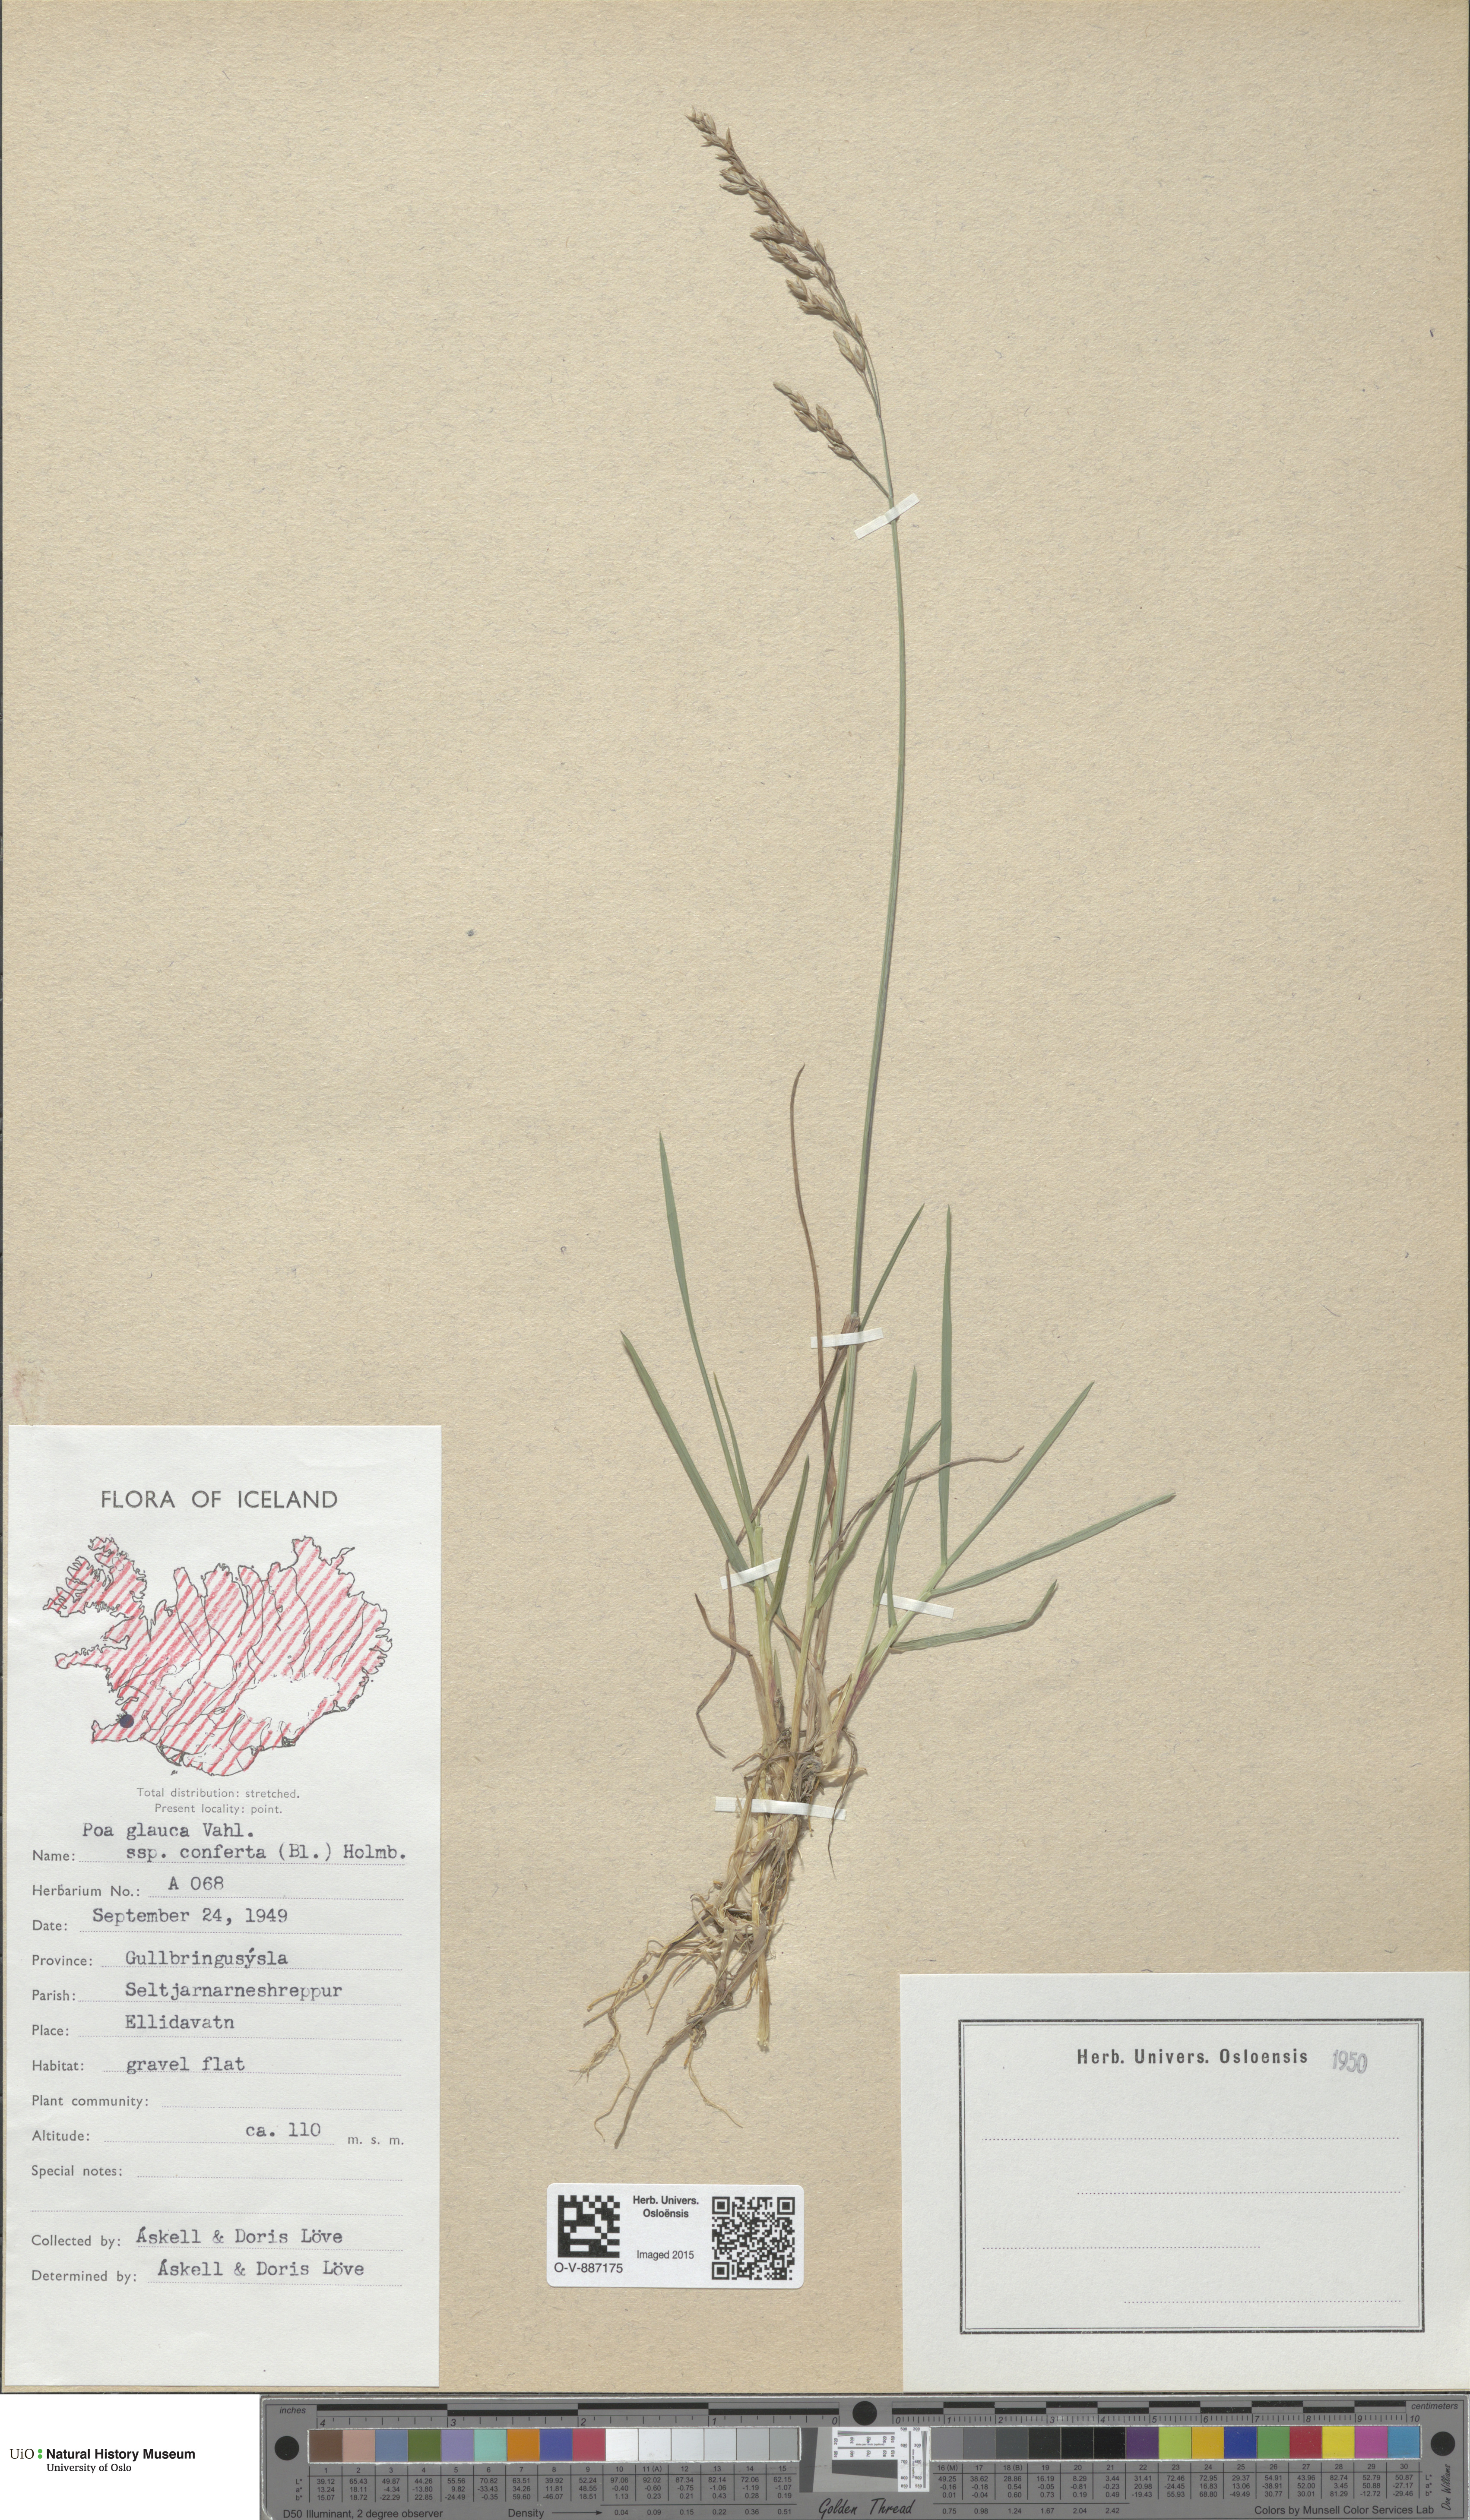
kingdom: Plantae
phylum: Tracheophyta
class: Liliopsida
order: Poales
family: Poaceae
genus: Poa
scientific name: Poa glauca
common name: Glaucous bluegrass
